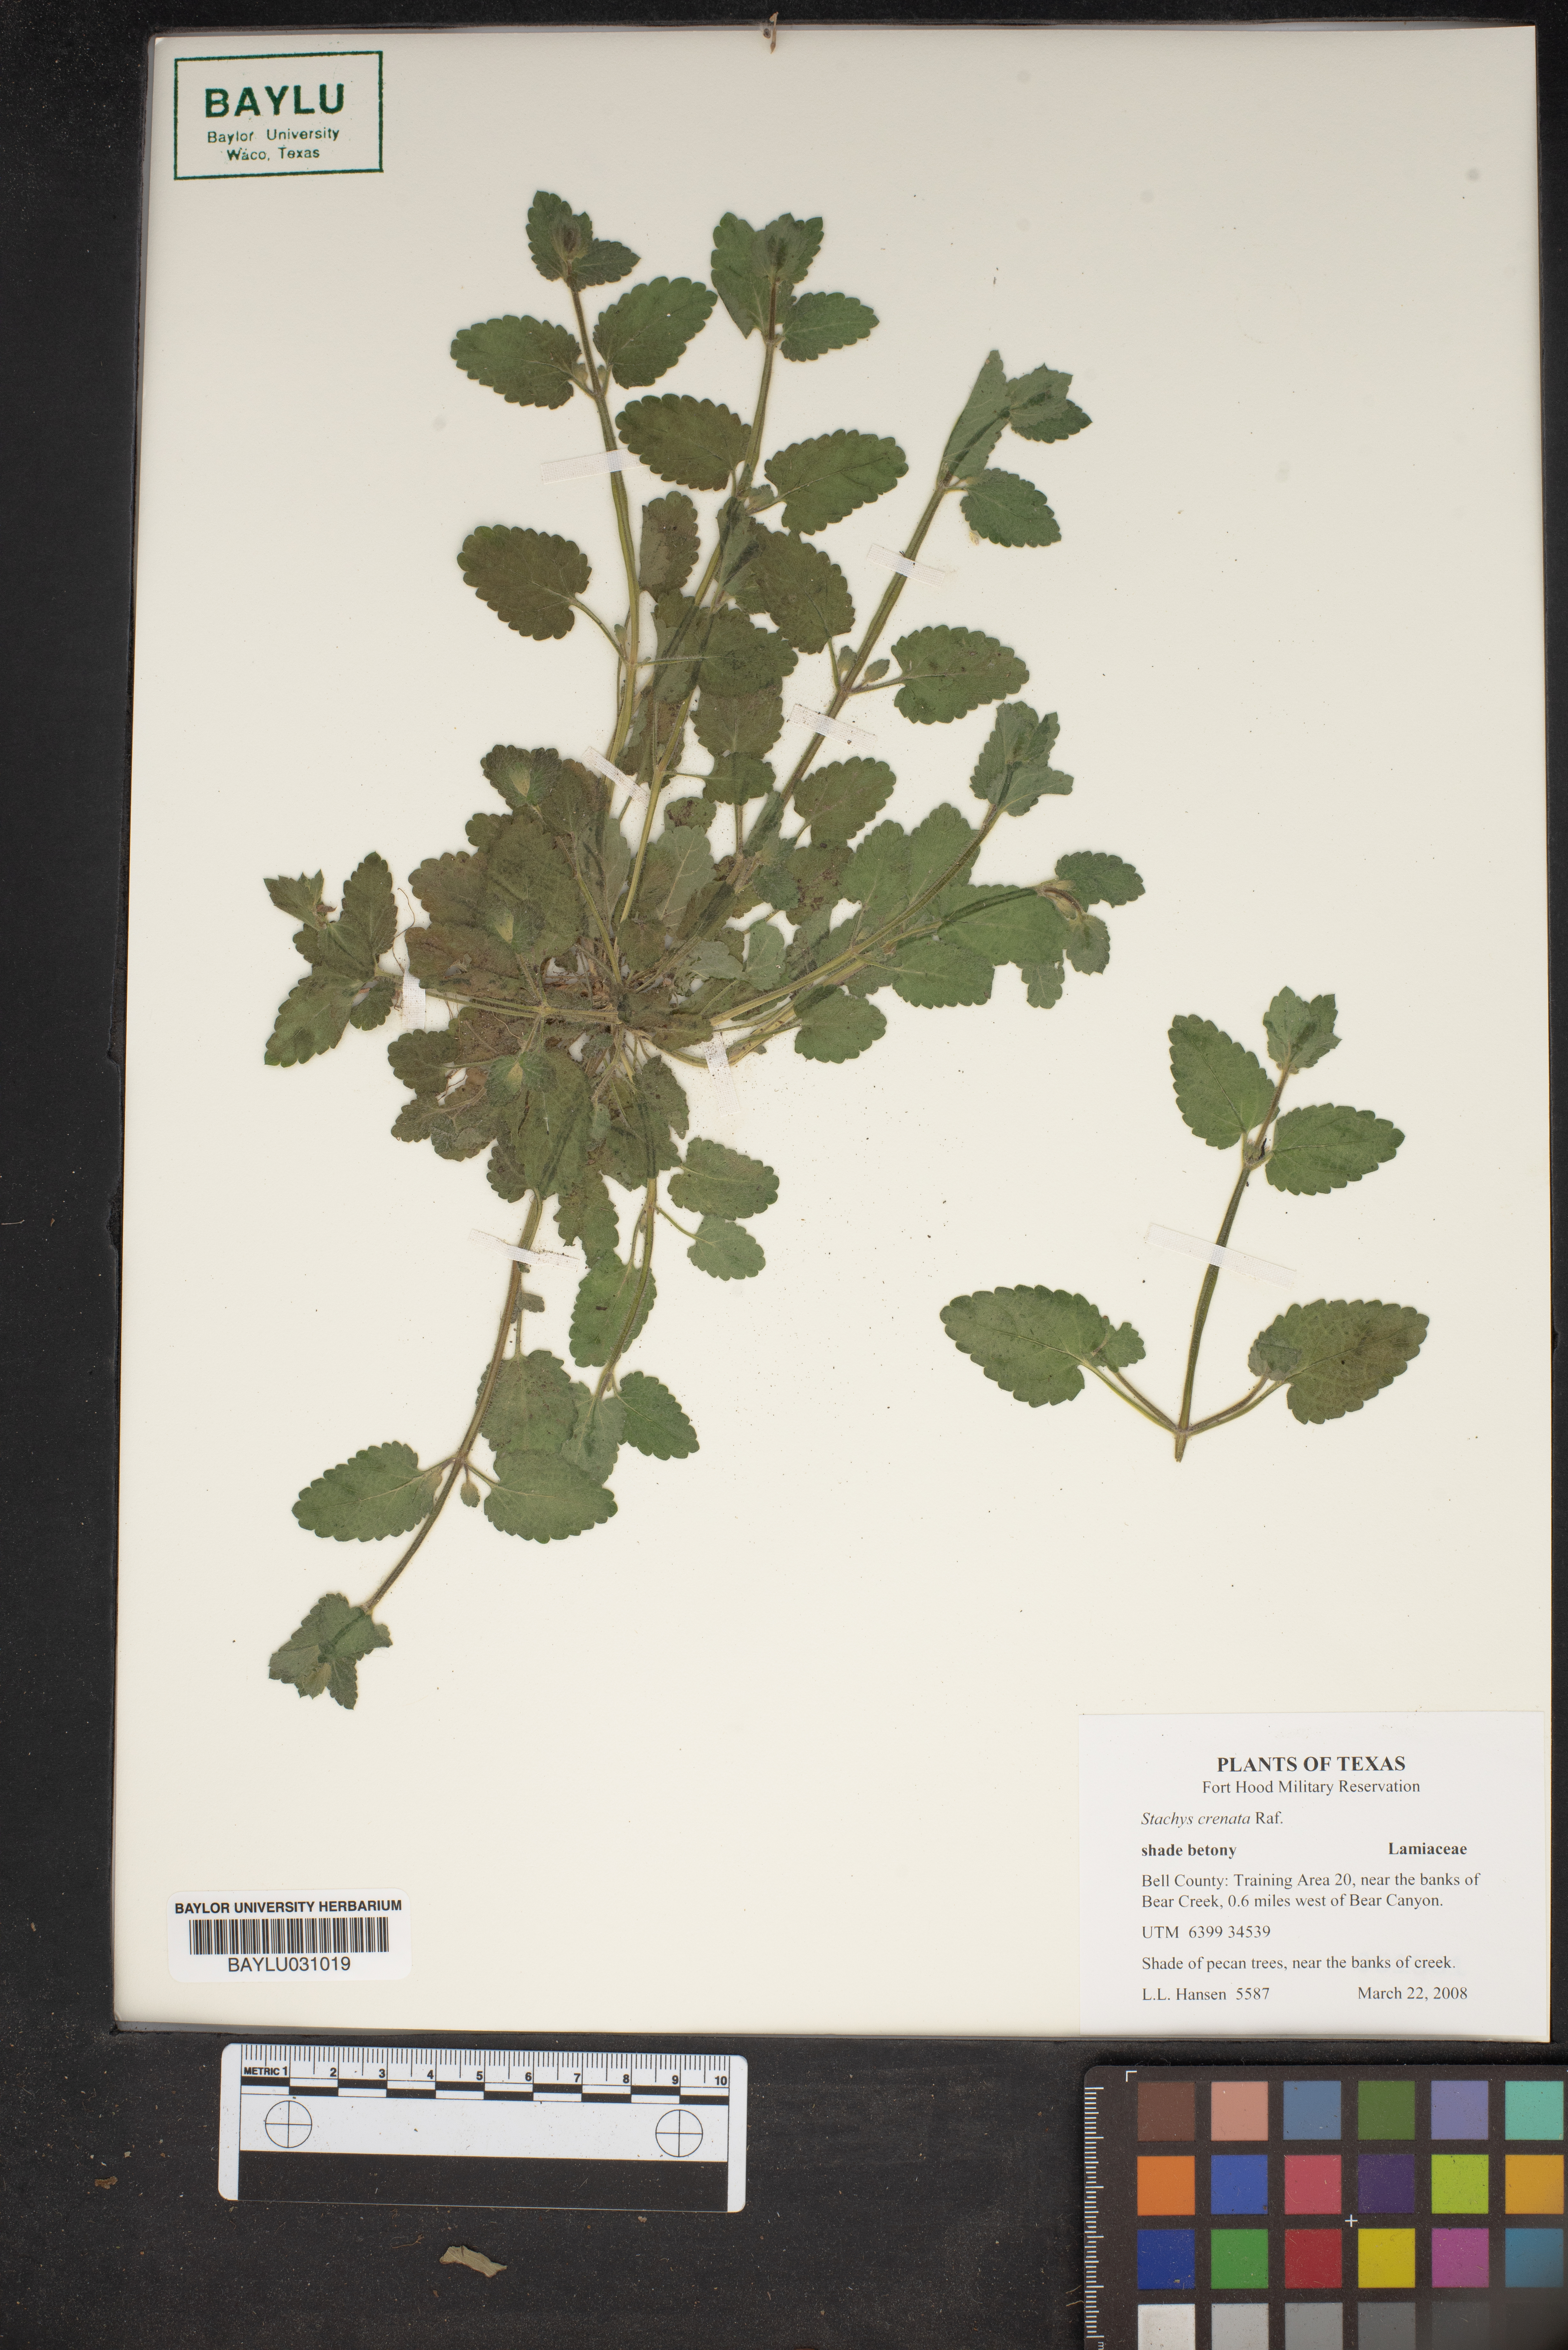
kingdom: Plantae
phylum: Tracheophyta
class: Magnoliopsida
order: Lamiales
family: Lamiaceae
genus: Stachys
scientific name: Stachys agraria
